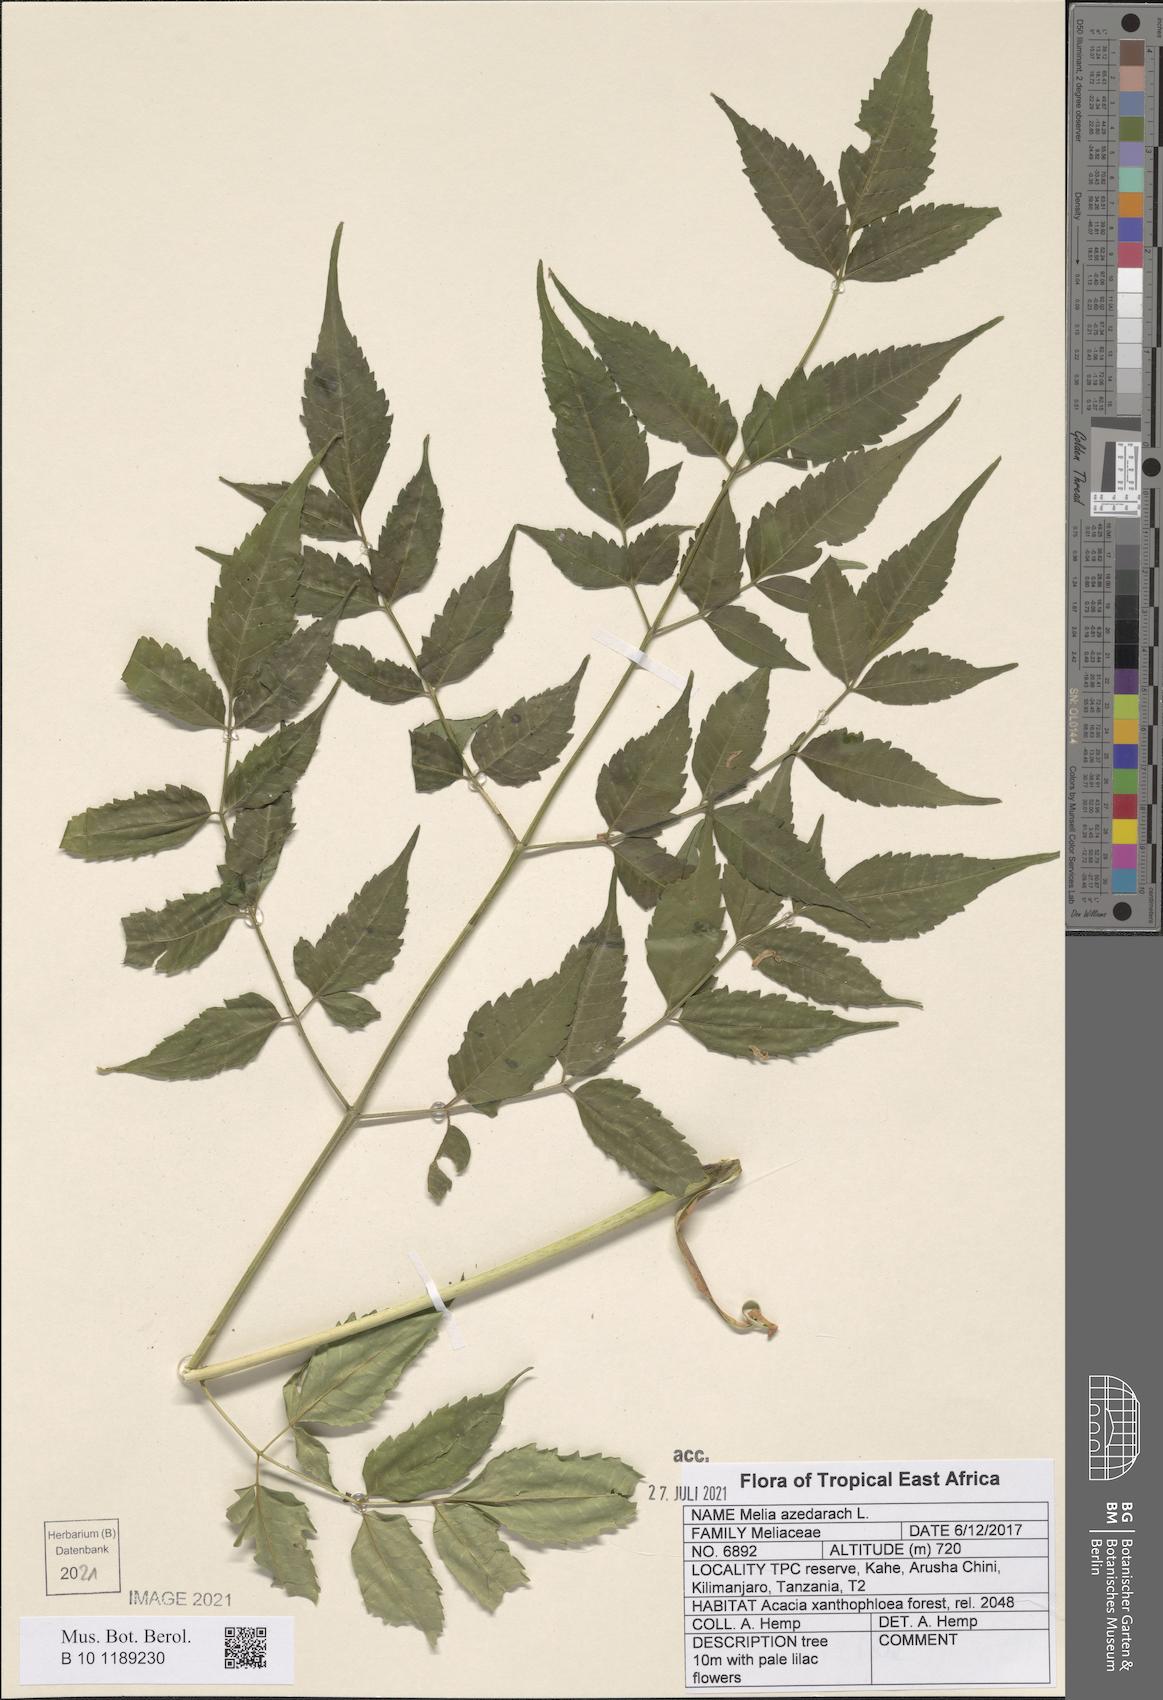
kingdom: Plantae
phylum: Tracheophyta
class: Magnoliopsida
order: Sapindales
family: Meliaceae
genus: Melia
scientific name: Melia azedarach
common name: Chinaberrytree
